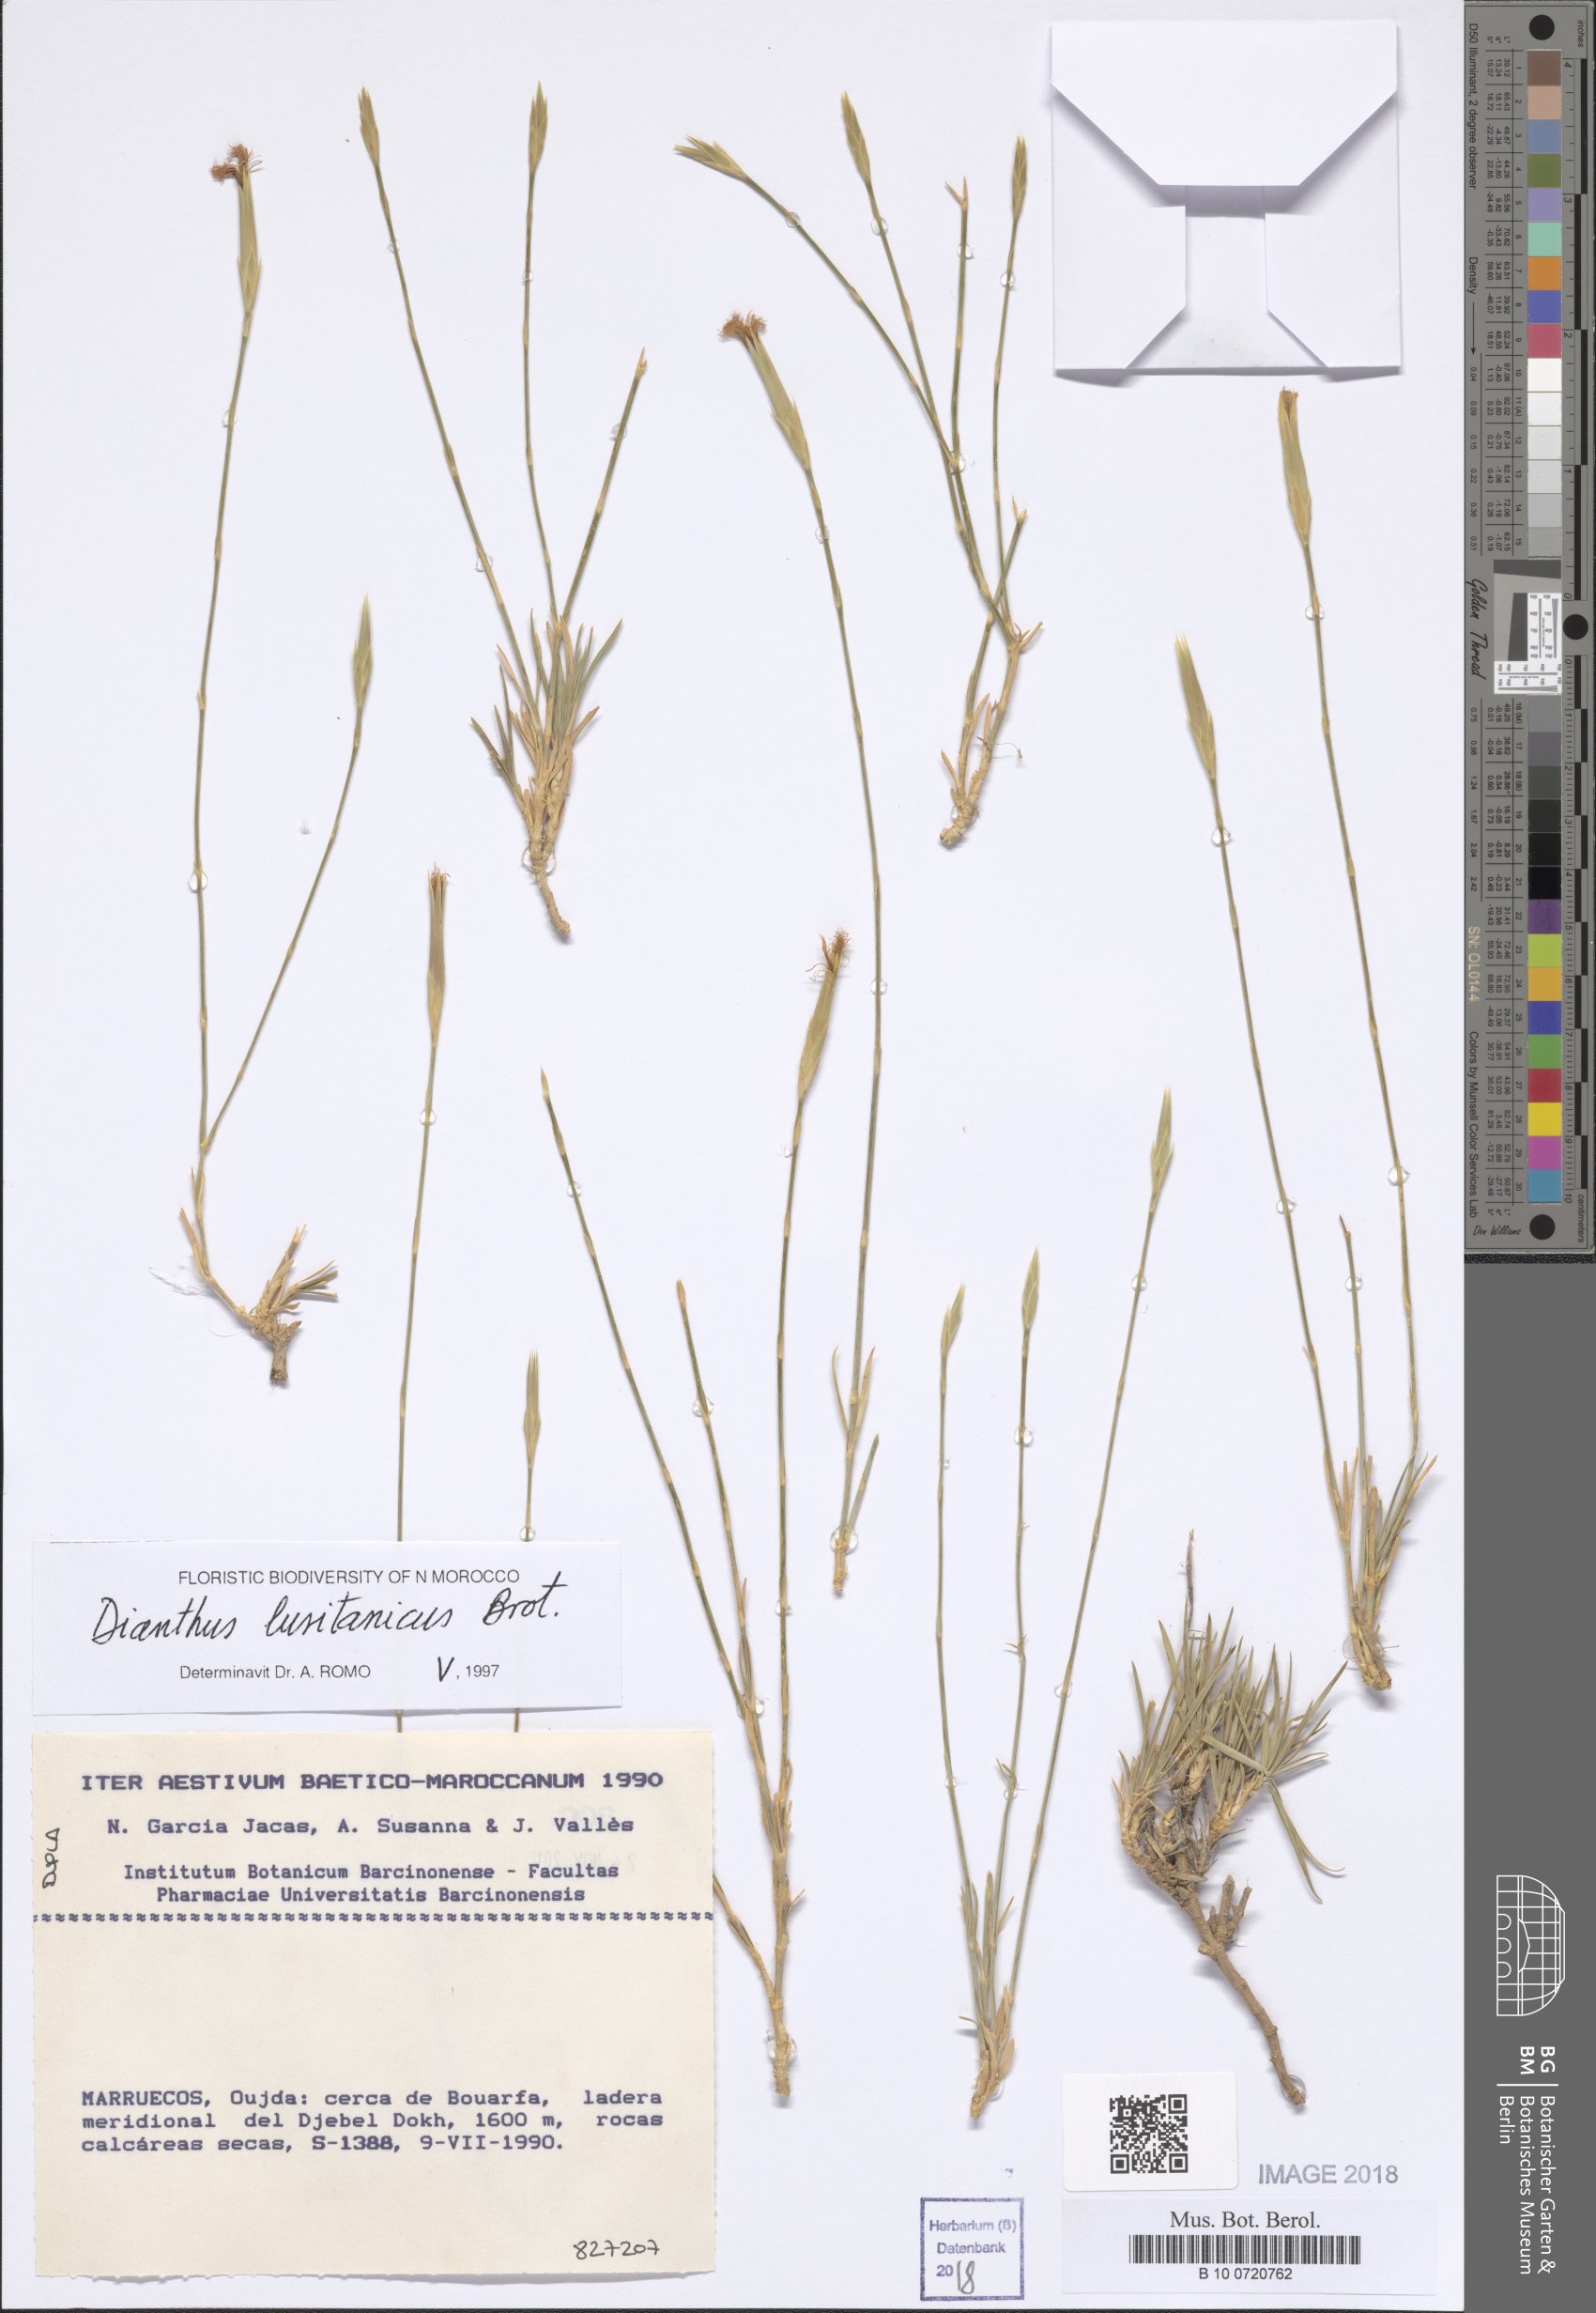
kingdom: Plantae
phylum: Tracheophyta
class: Magnoliopsida
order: Caryophyllales
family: Caryophyllaceae
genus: Dianthus
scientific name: Dianthus
